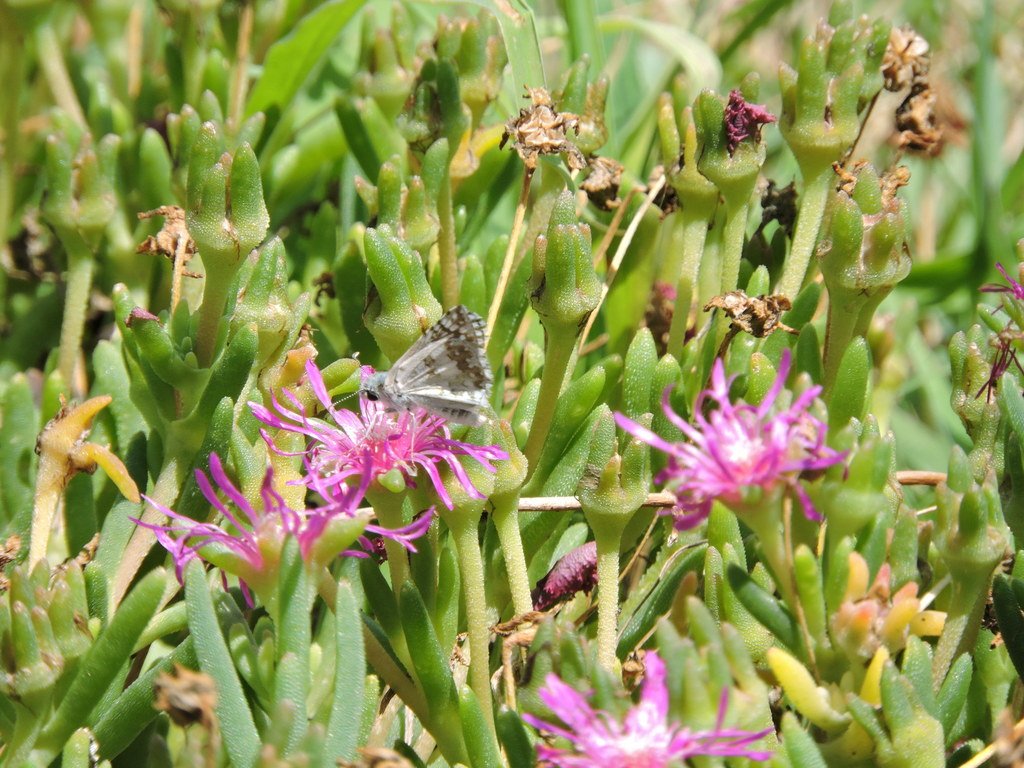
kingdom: Animalia
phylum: Arthropoda
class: Insecta
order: Lepidoptera
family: Hesperiidae
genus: Pyrgus
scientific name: Pyrgus communis
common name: Common Checkered-Skipper
